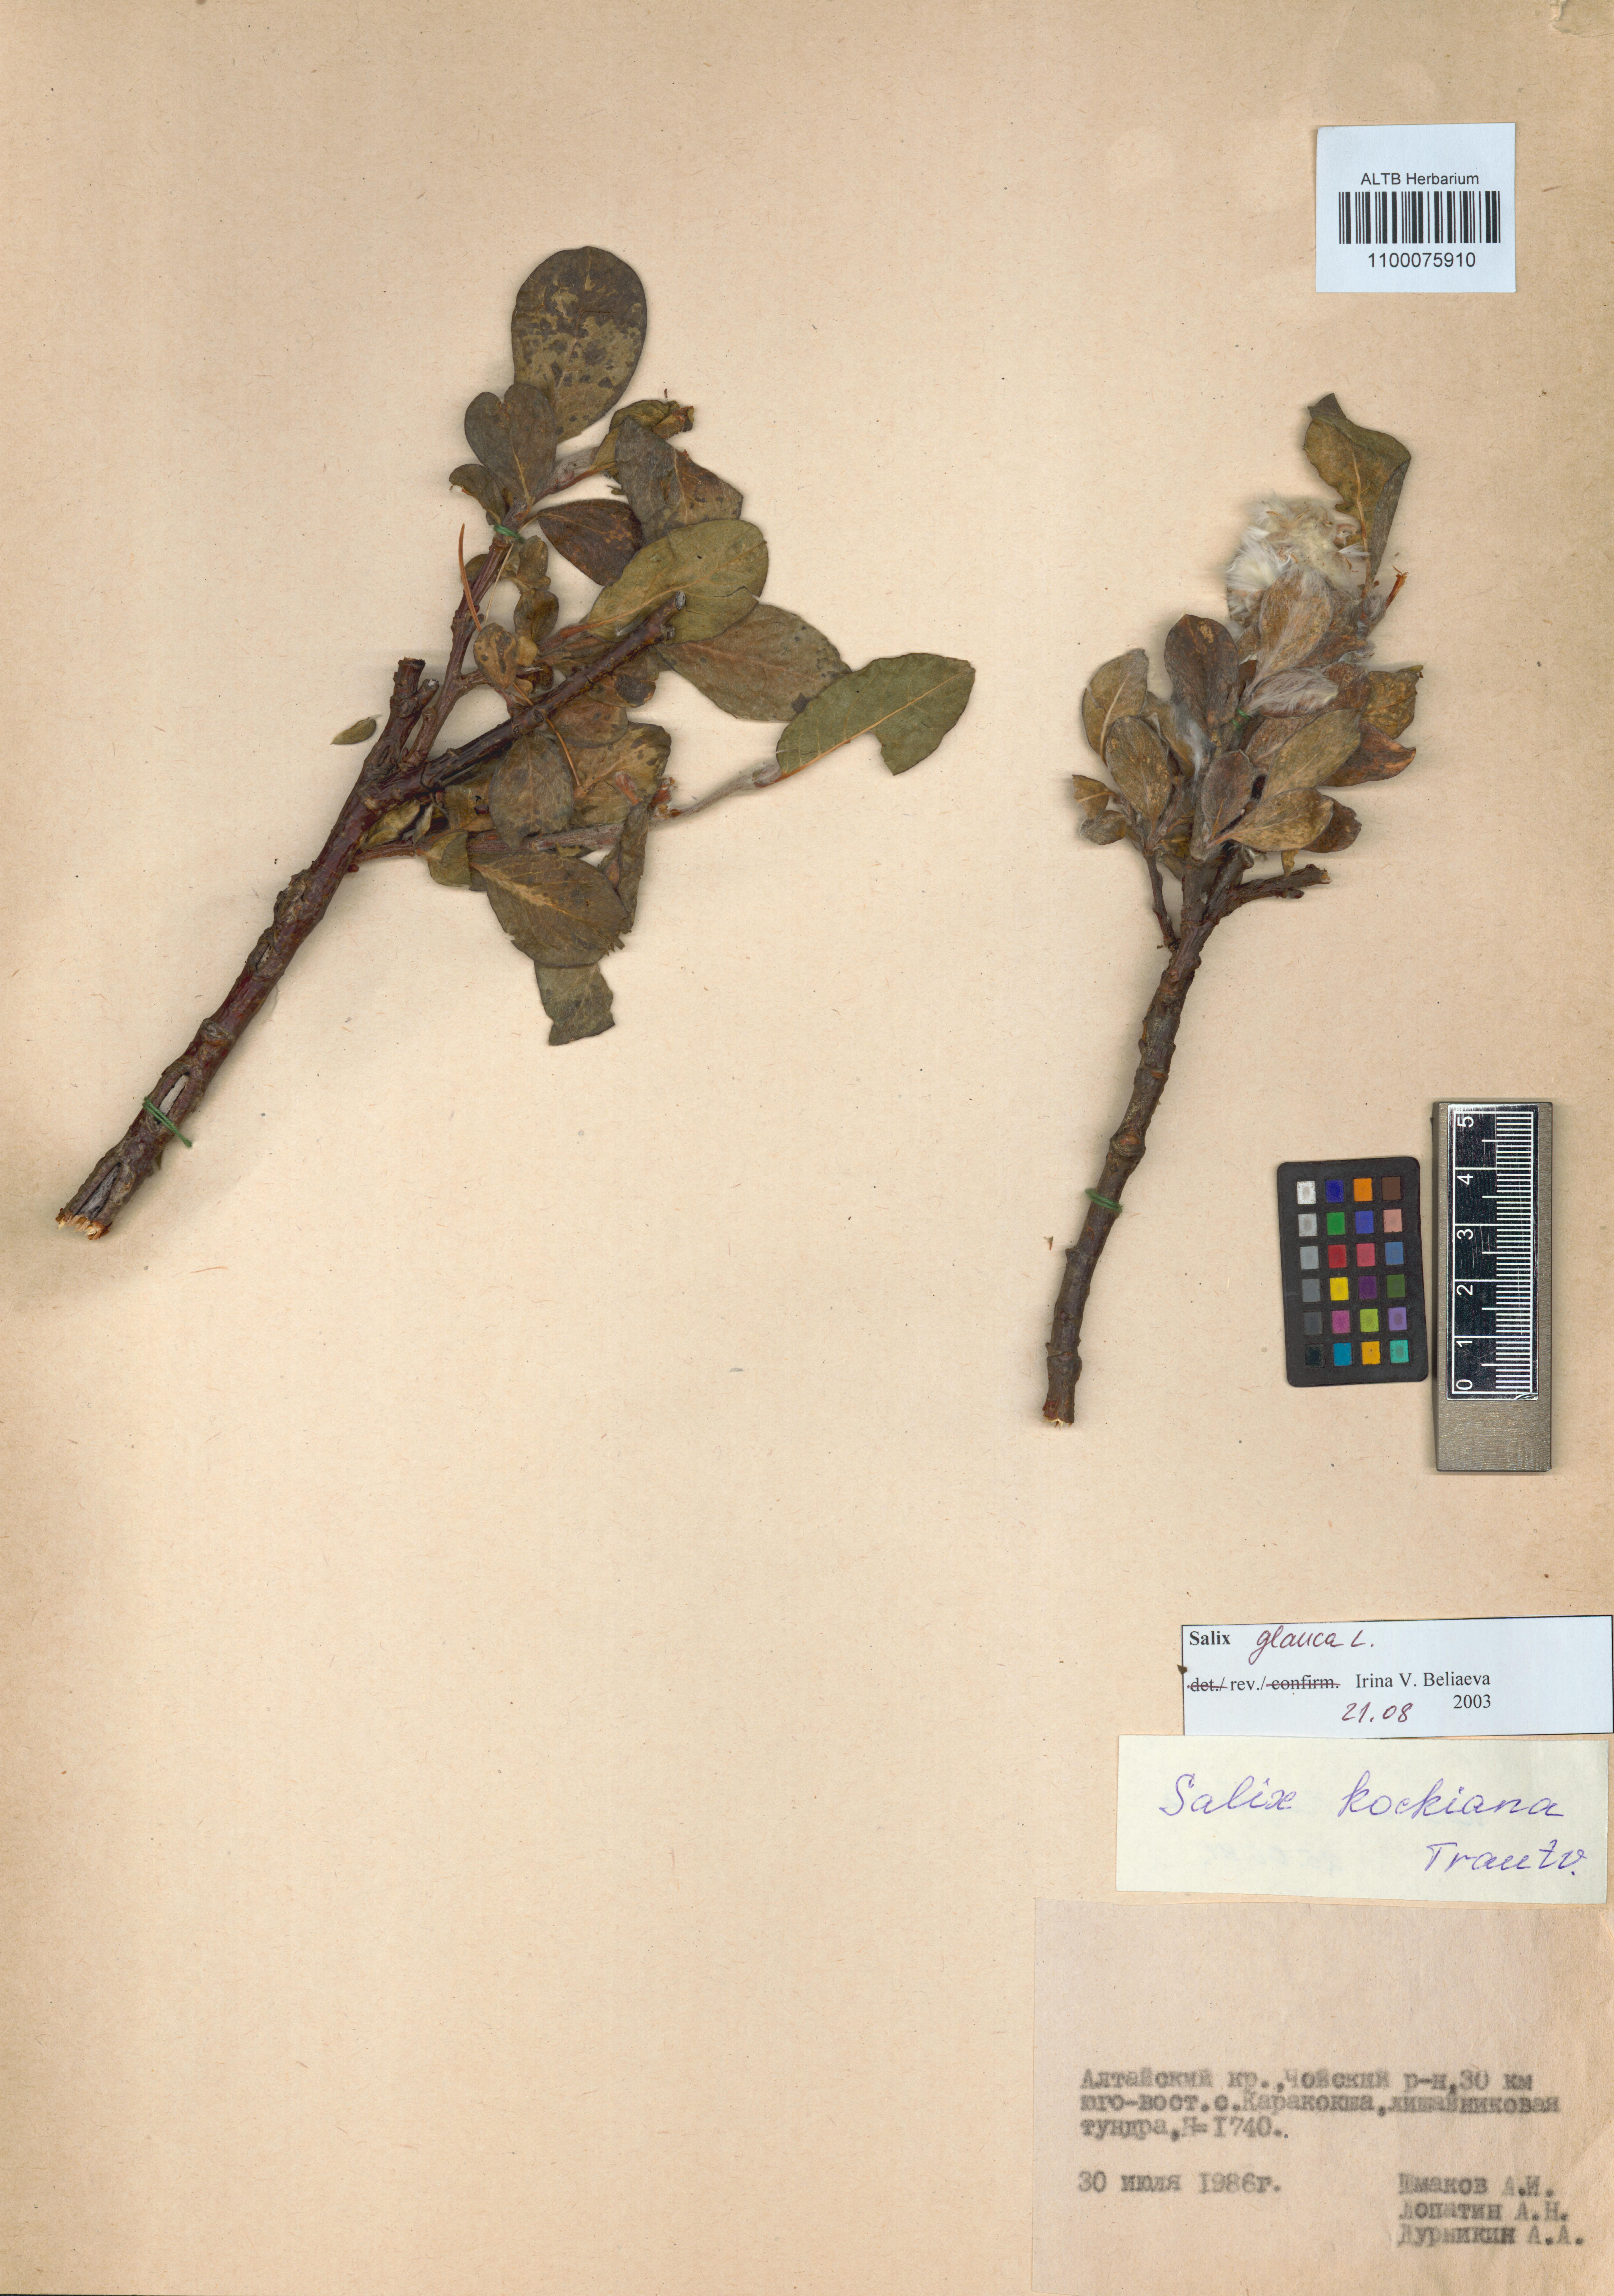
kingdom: Plantae
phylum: Tracheophyta
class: Magnoliopsida
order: Malpighiales
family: Salicaceae
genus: Salix
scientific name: Salix glauca
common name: Glaucous willow
